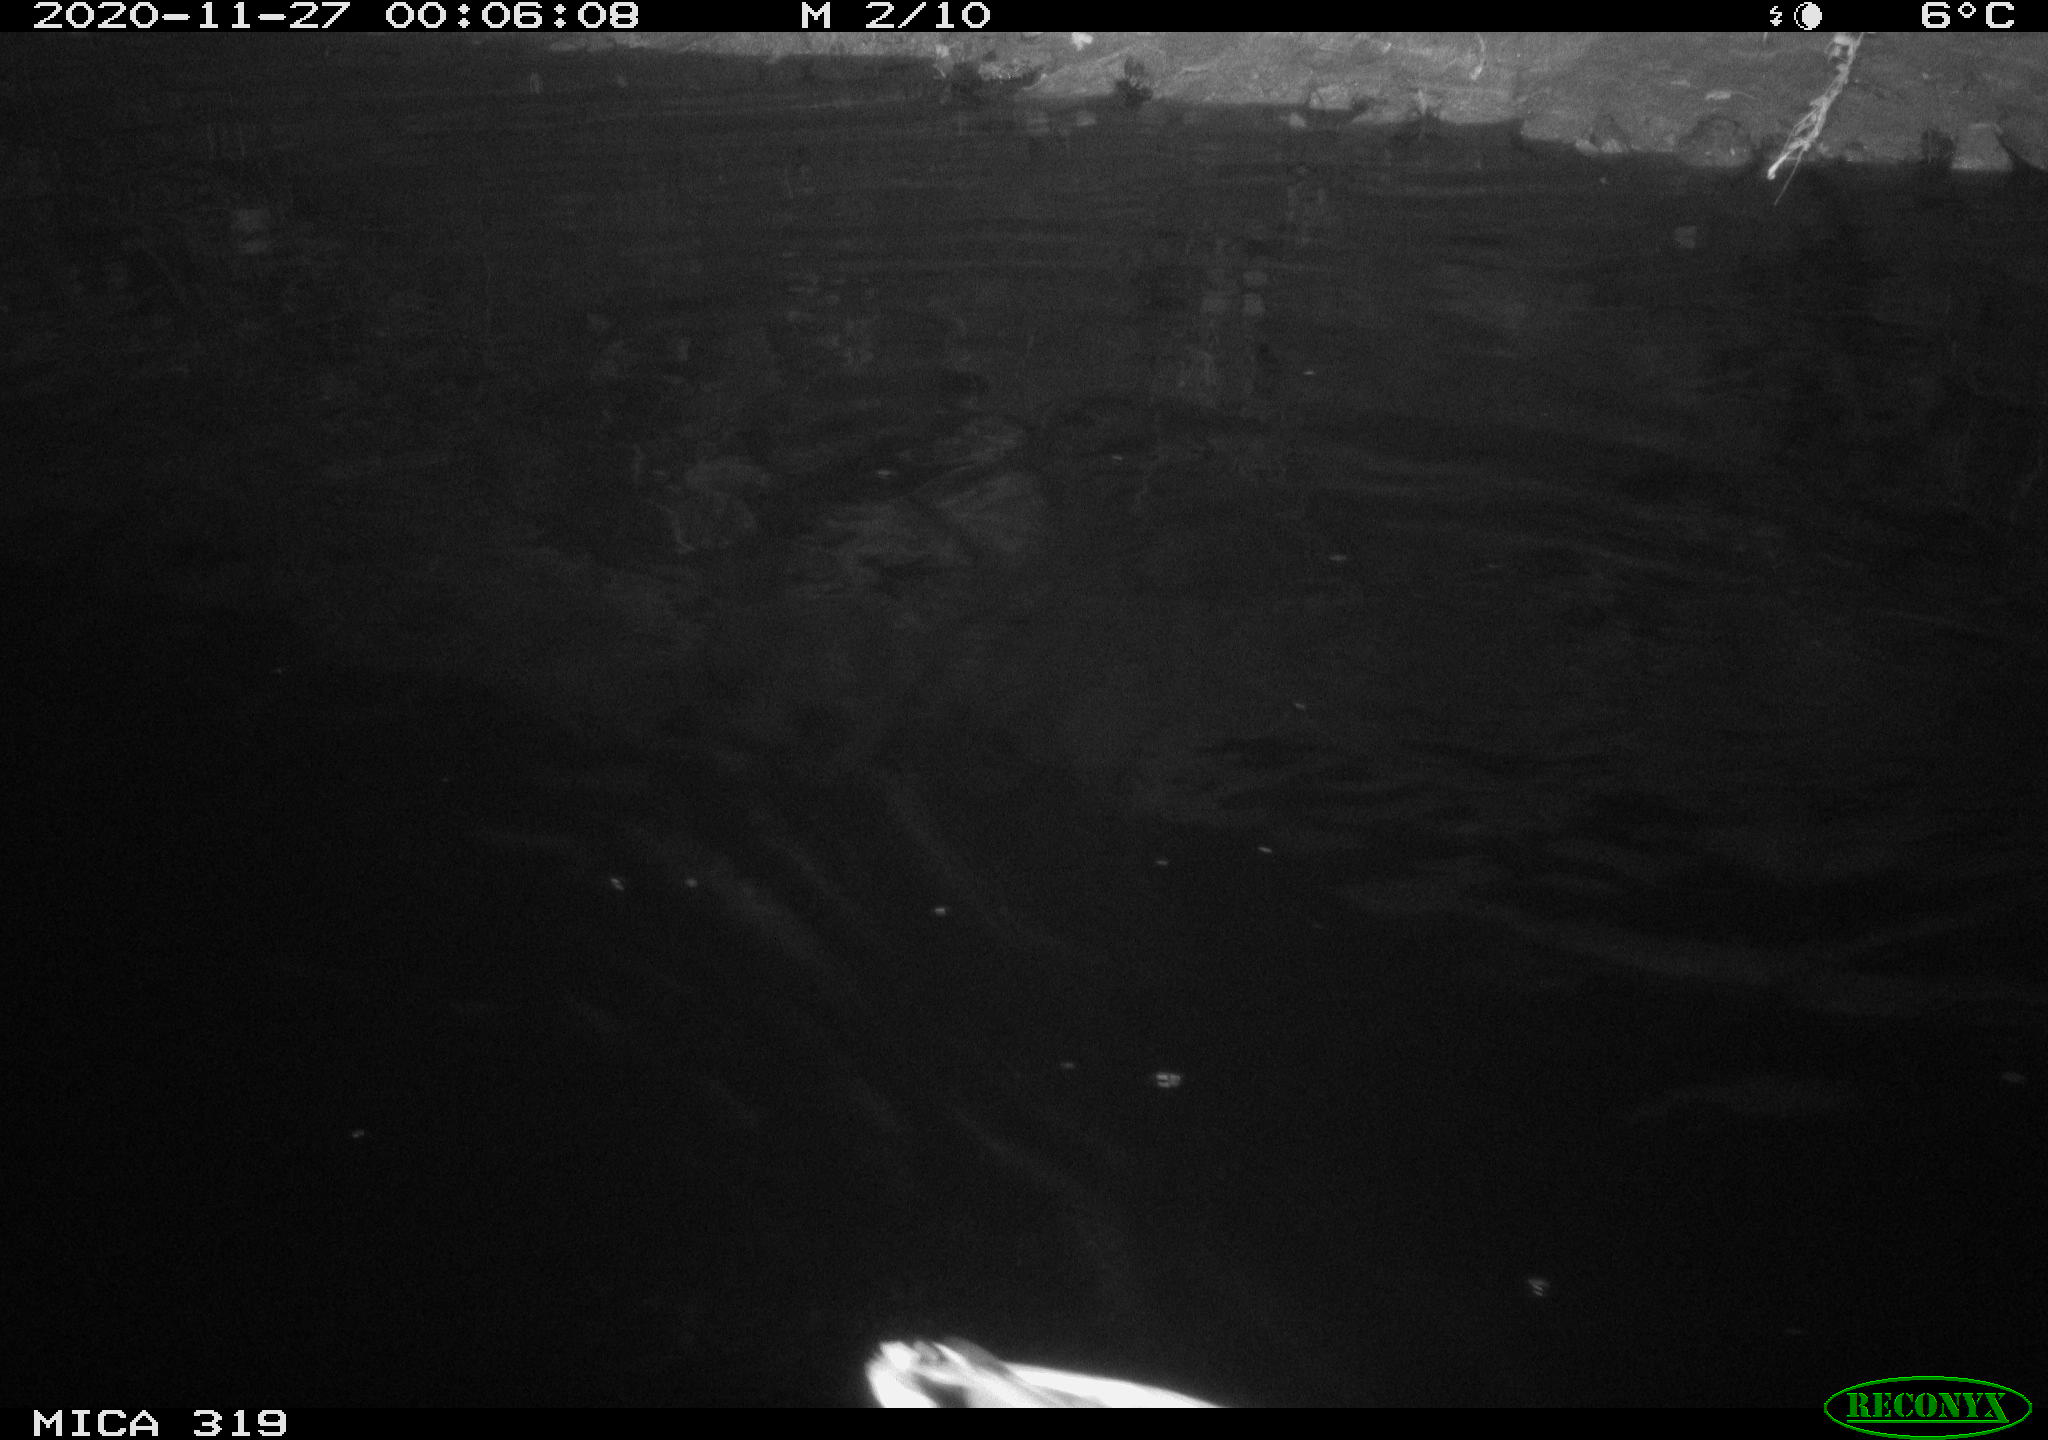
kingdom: Animalia
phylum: Chordata
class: Aves
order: Anseriformes
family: Anatidae
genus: Anas
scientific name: Anas platyrhynchos
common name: Mallard
